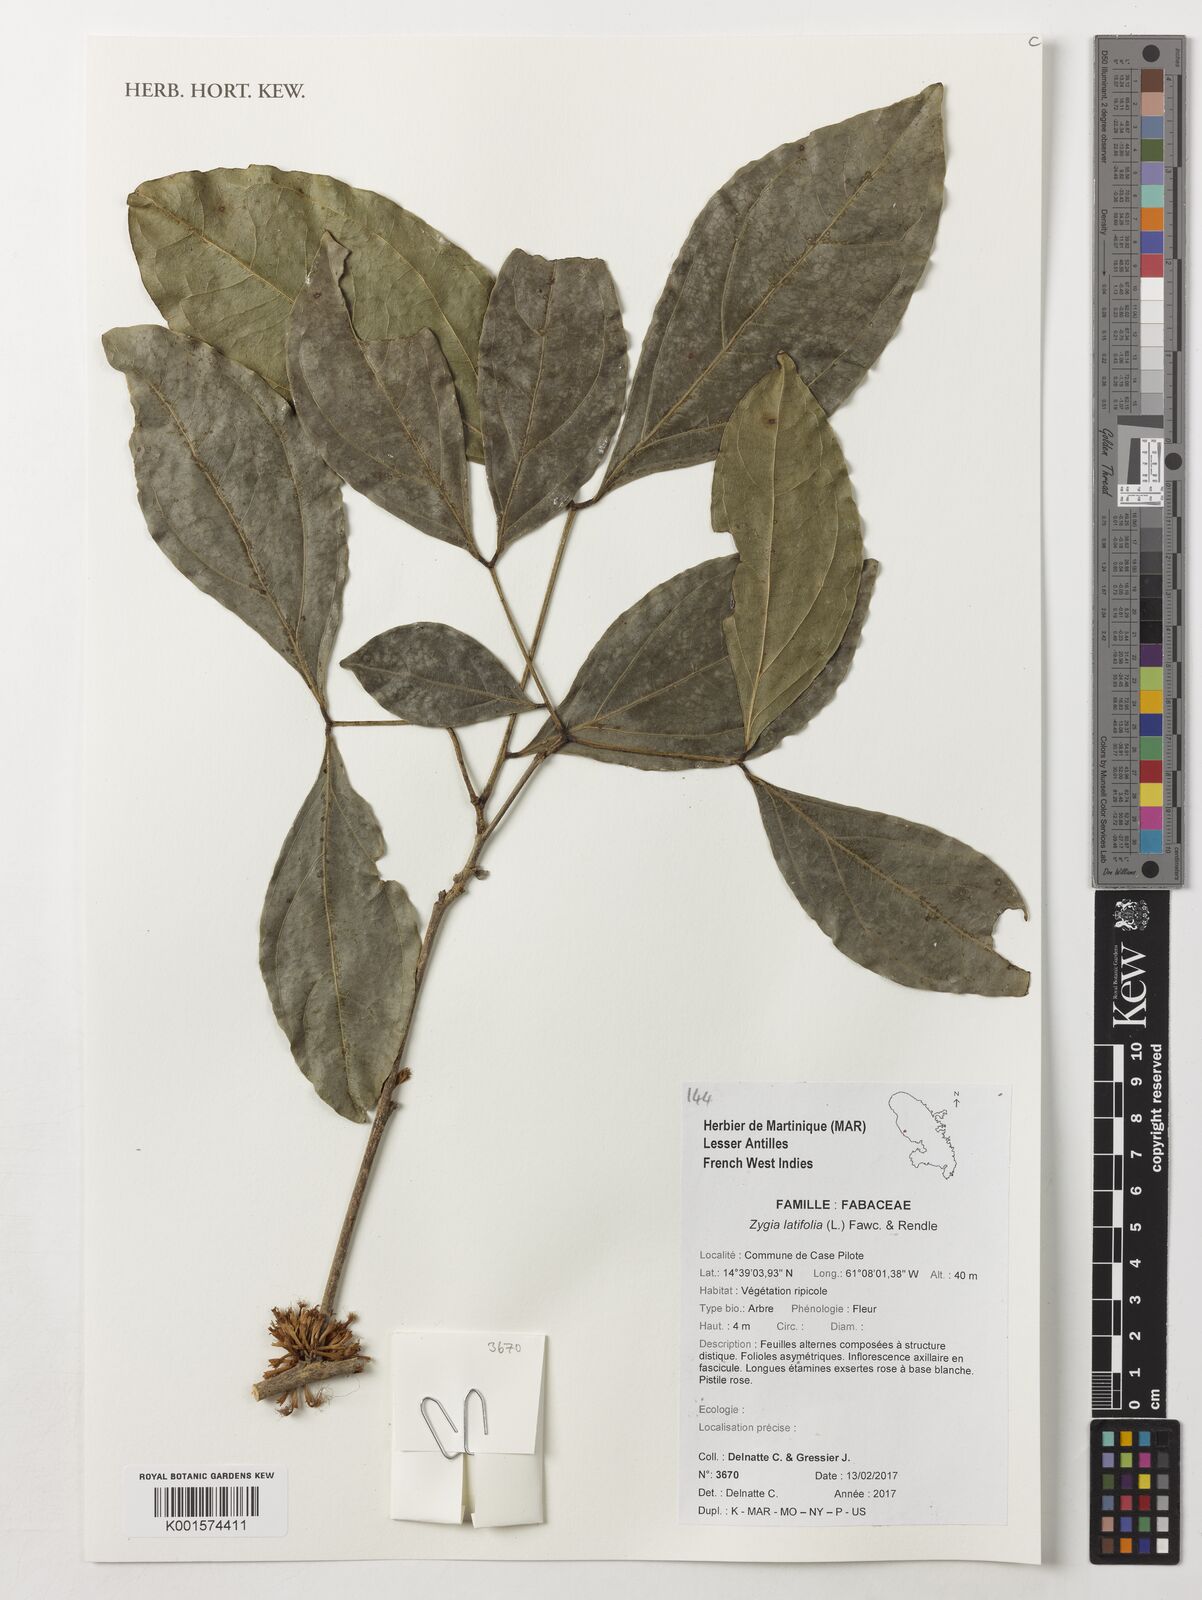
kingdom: Plantae
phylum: Tracheophyta
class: Magnoliopsida
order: Fabales
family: Fabaceae
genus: Zygia
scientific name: Zygia latifolia
